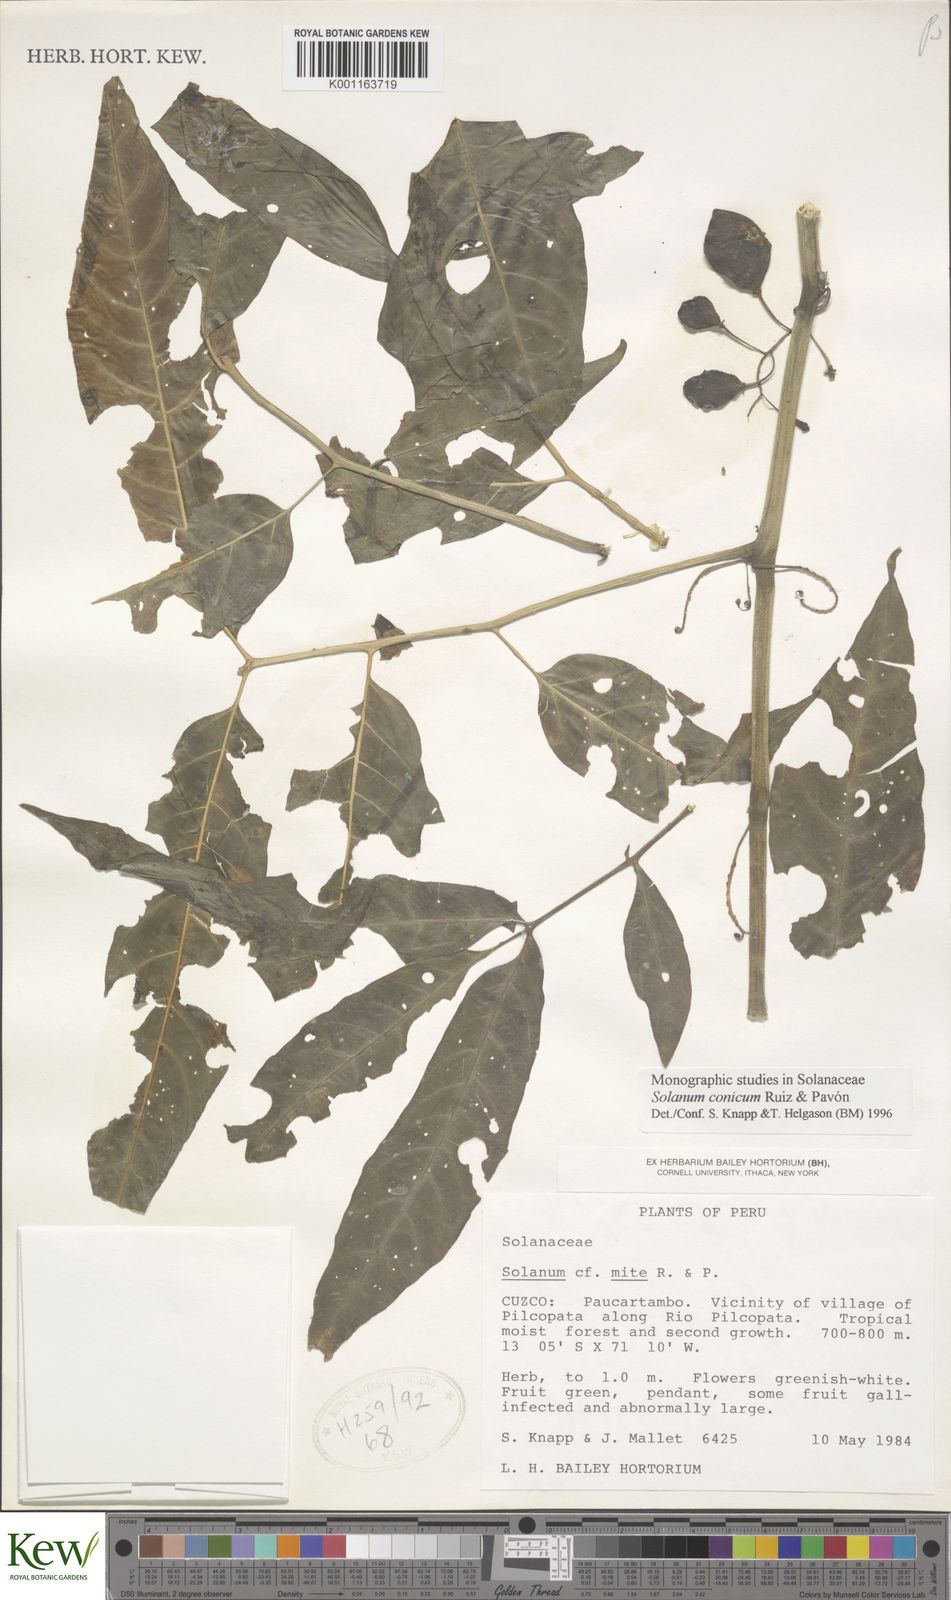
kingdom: Plantae
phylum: Tracheophyta
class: Magnoliopsida
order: Solanales
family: Solanaceae
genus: Solanum
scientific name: Solanum conicum
